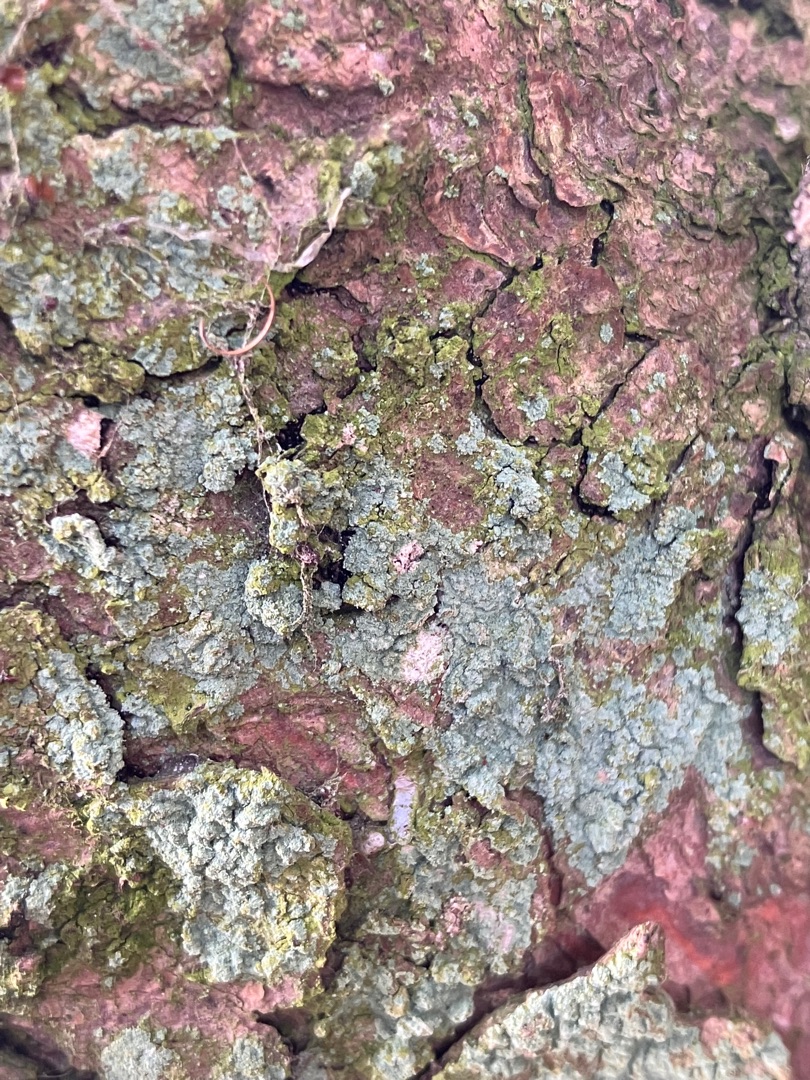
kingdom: Fungi
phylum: Ascomycota
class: Lecanoromycetes
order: Lecanorales
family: Stereocaulaceae
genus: Lepraria
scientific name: Lepraria
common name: Støvlav
